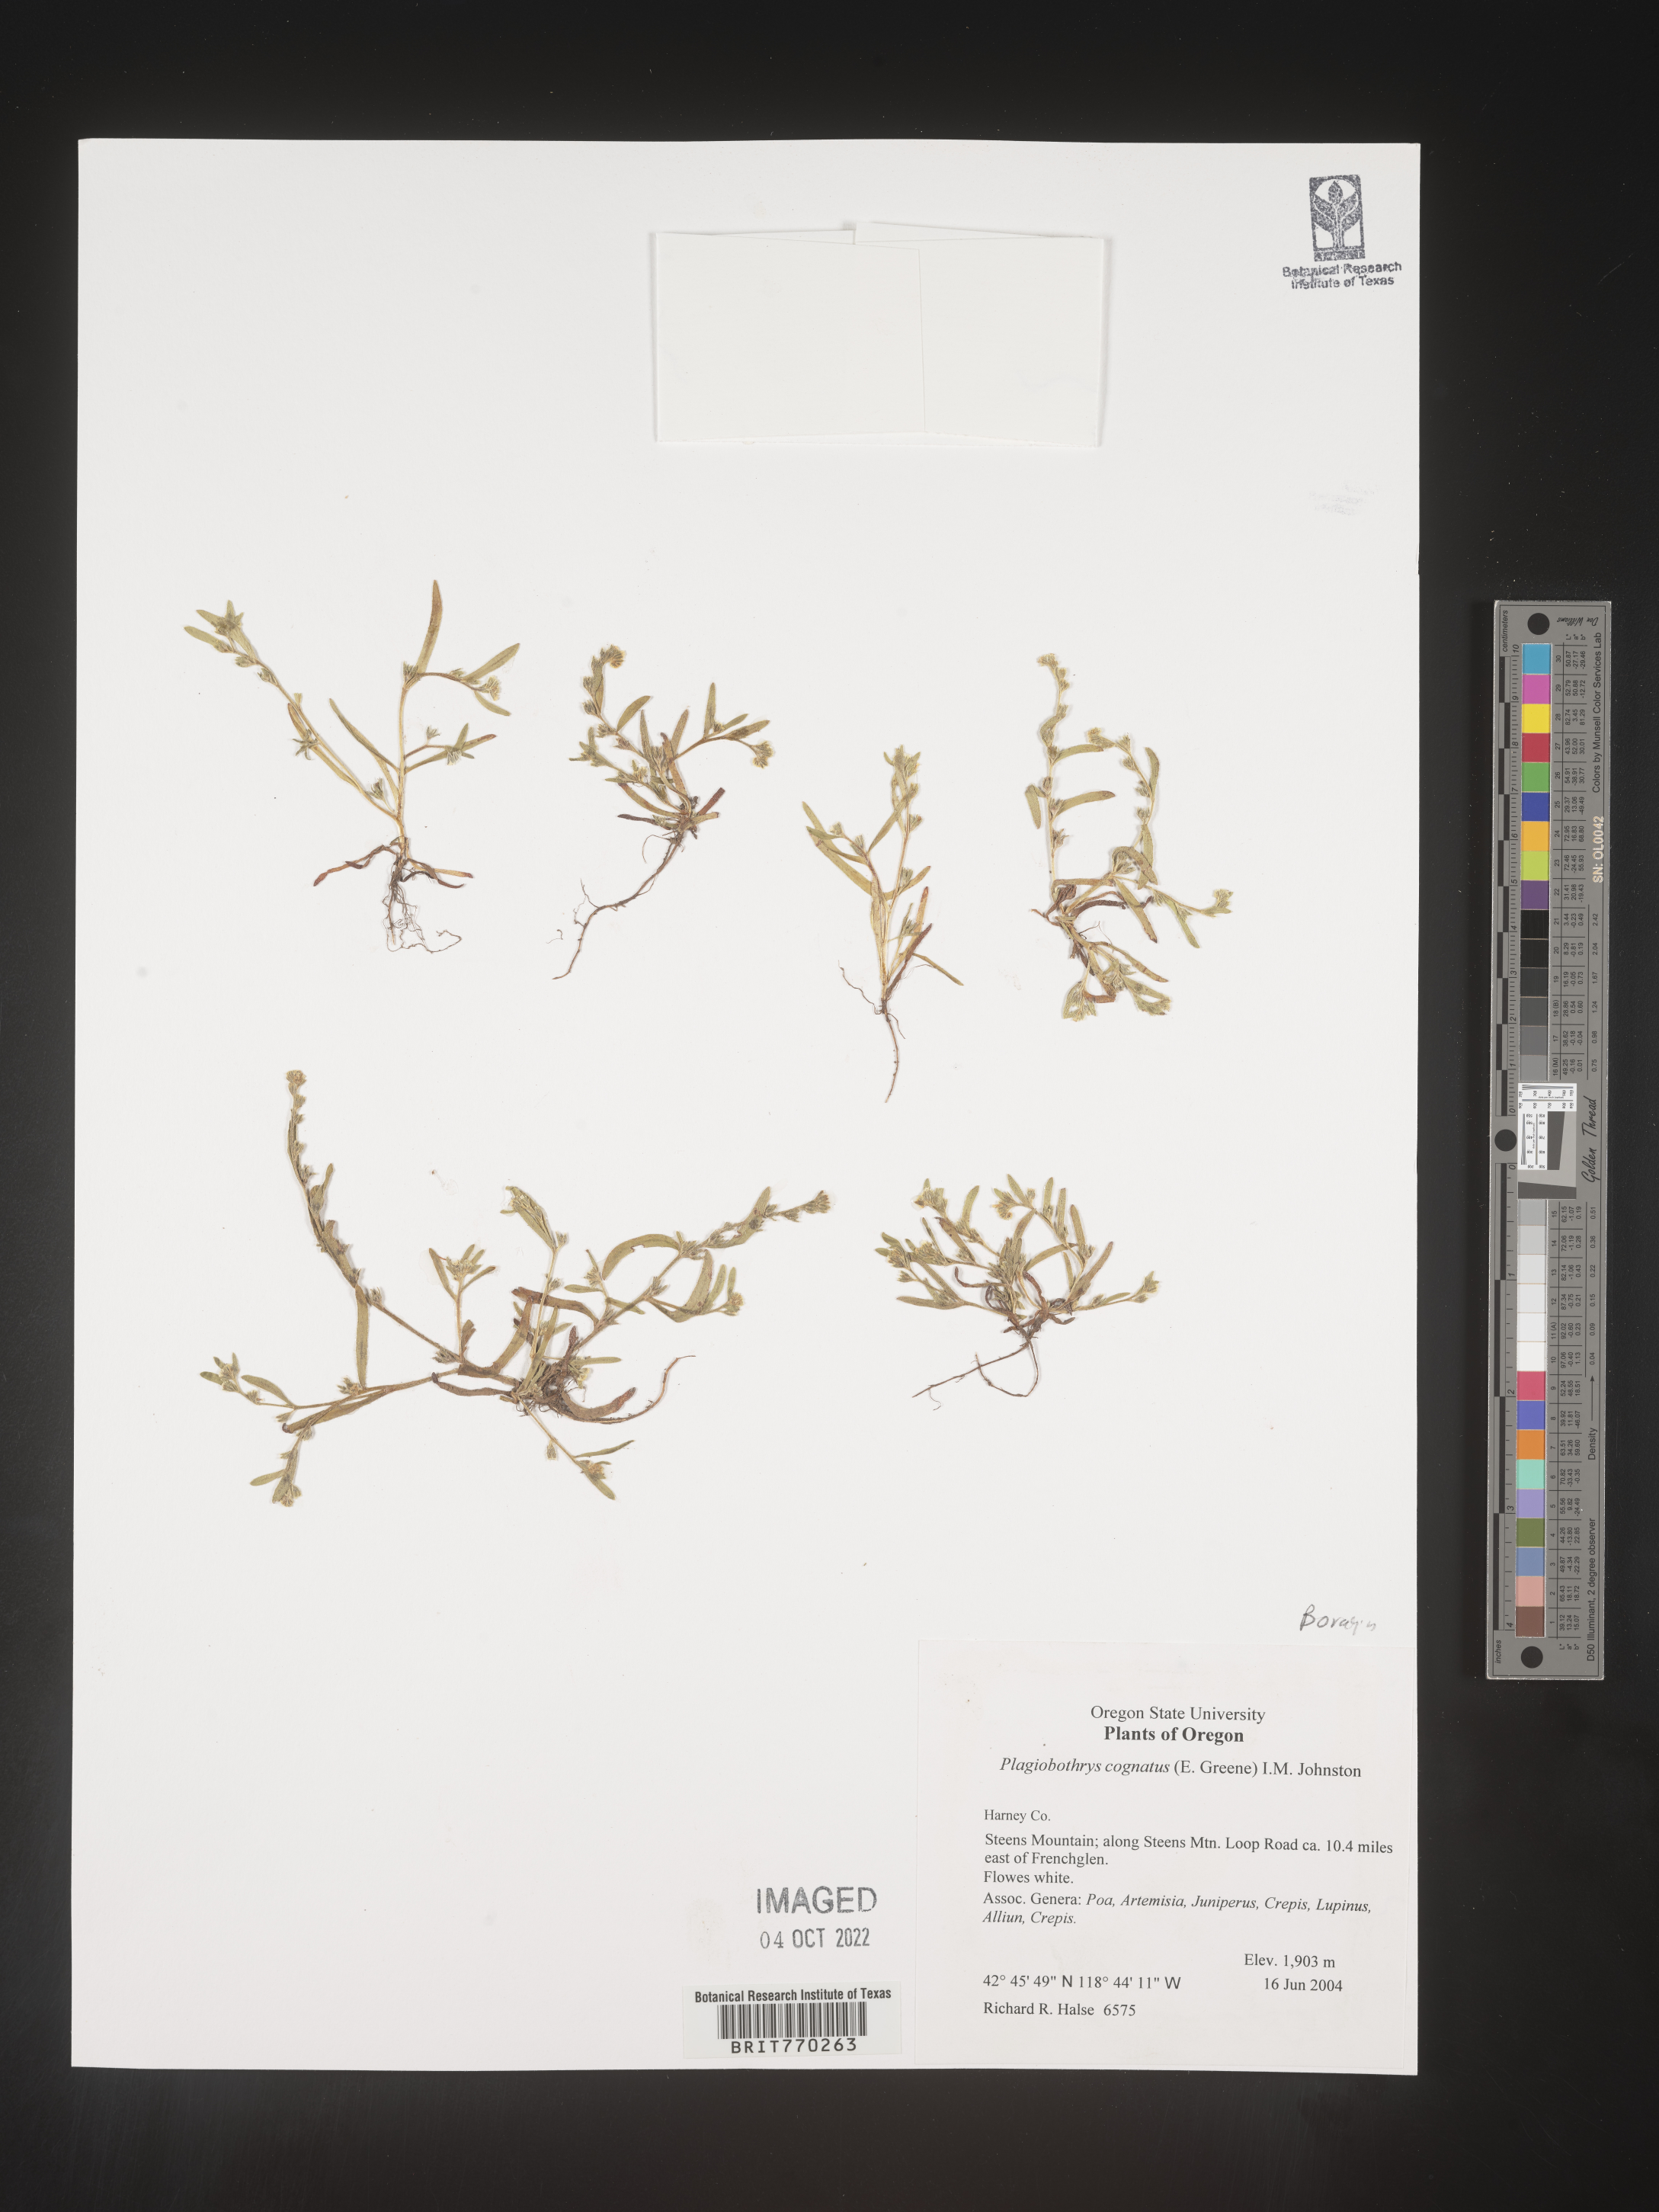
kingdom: Plantae
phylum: Tracheophyta
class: Magnoliopsida
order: Boraginales
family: Boraginaceae
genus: Plagiobothrys
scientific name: Plagiobothrys
